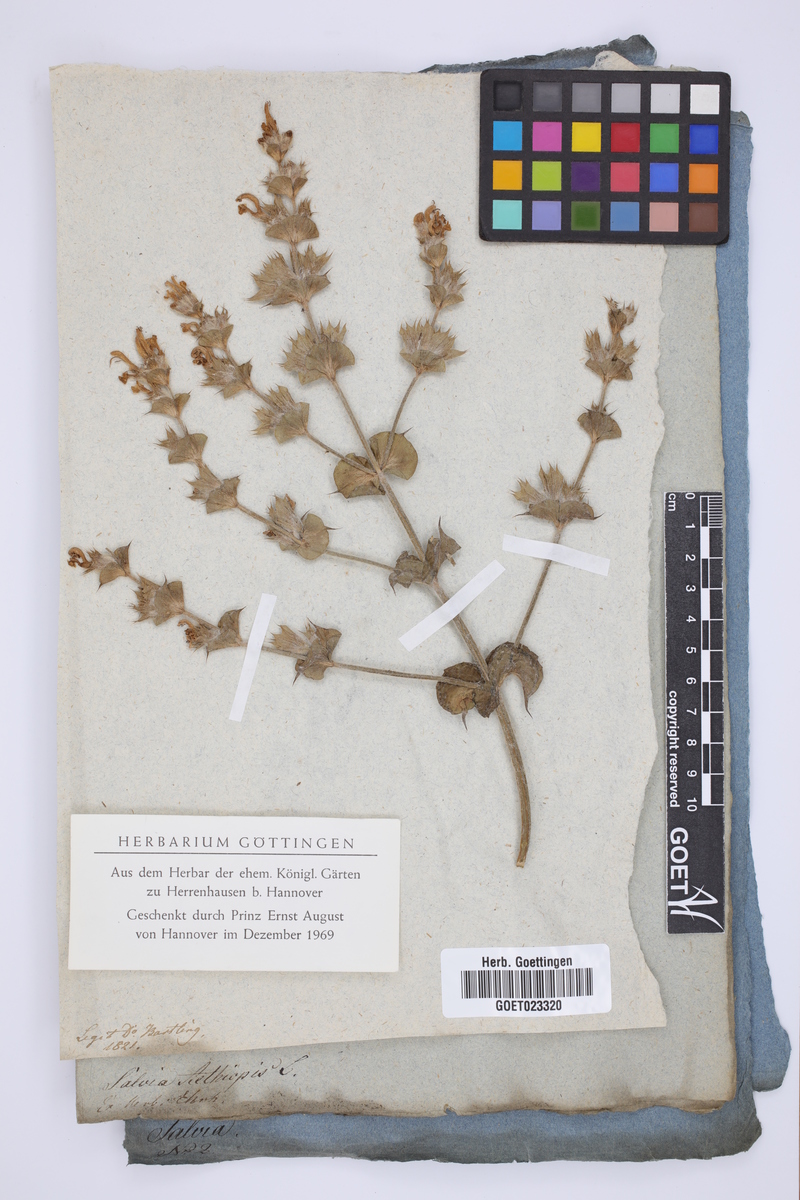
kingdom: Plantae
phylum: Tracheophyta
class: Magnoliopsida
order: Lamiales
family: Lamiaceae
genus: Salvia
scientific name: Salvia aethiopis
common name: Mediterranean sage
